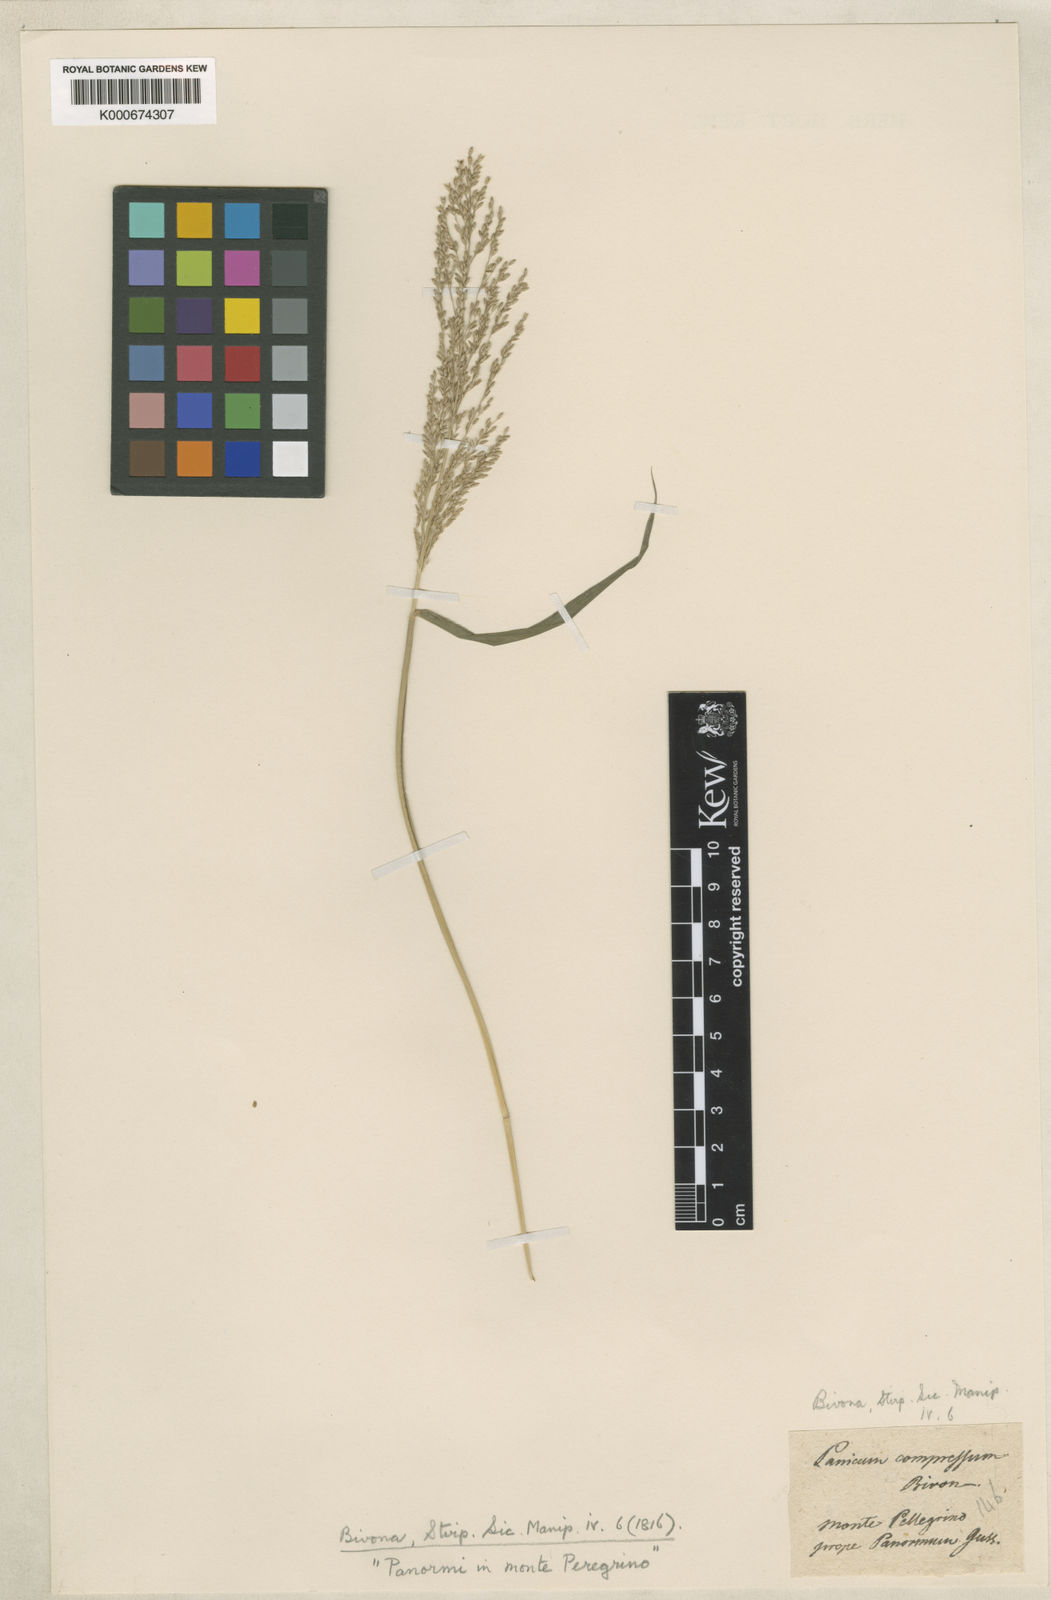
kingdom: Plantae
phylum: Tracheophyta
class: Liliopsida
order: Poales
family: Poaceae
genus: Megathyrsus
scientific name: Megathyrsus maximus
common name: Guineagrass
